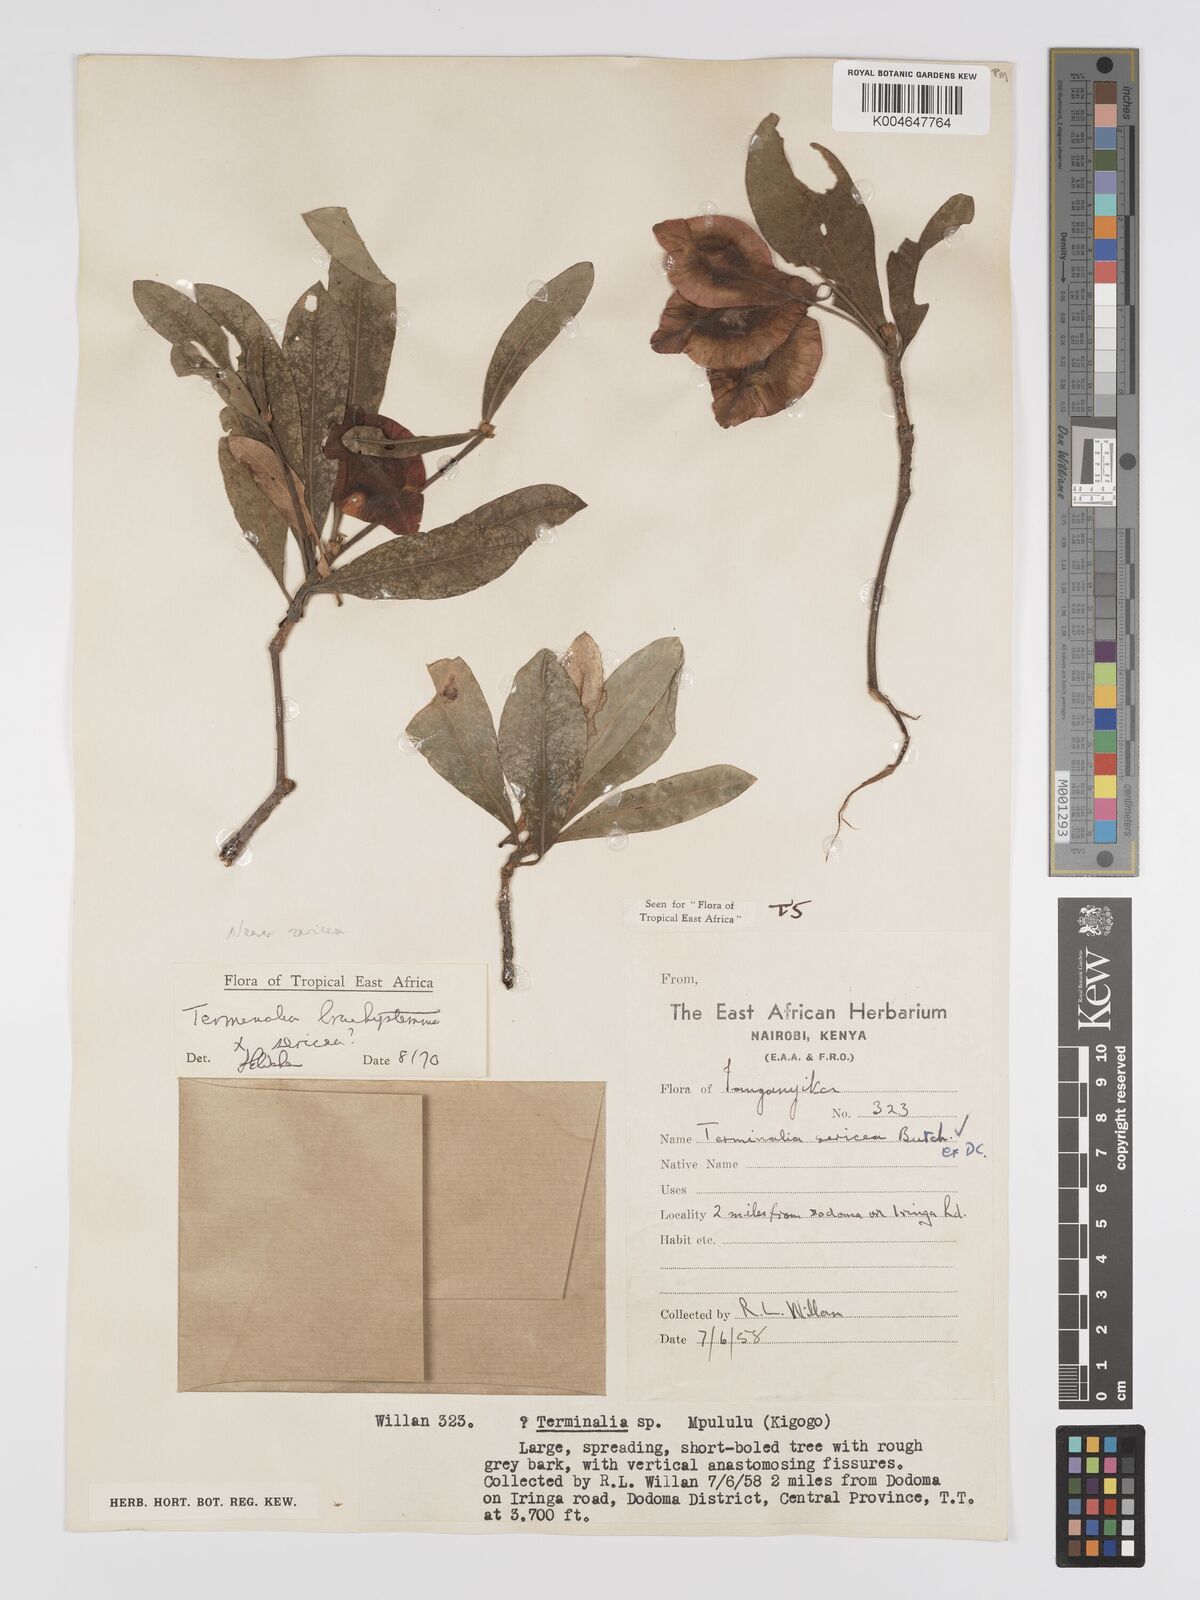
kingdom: Plantae
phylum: Tracheophyta
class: Magnoliopsida
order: Myrtales
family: Combretaceae
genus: Terminalia
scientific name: Terminalia
